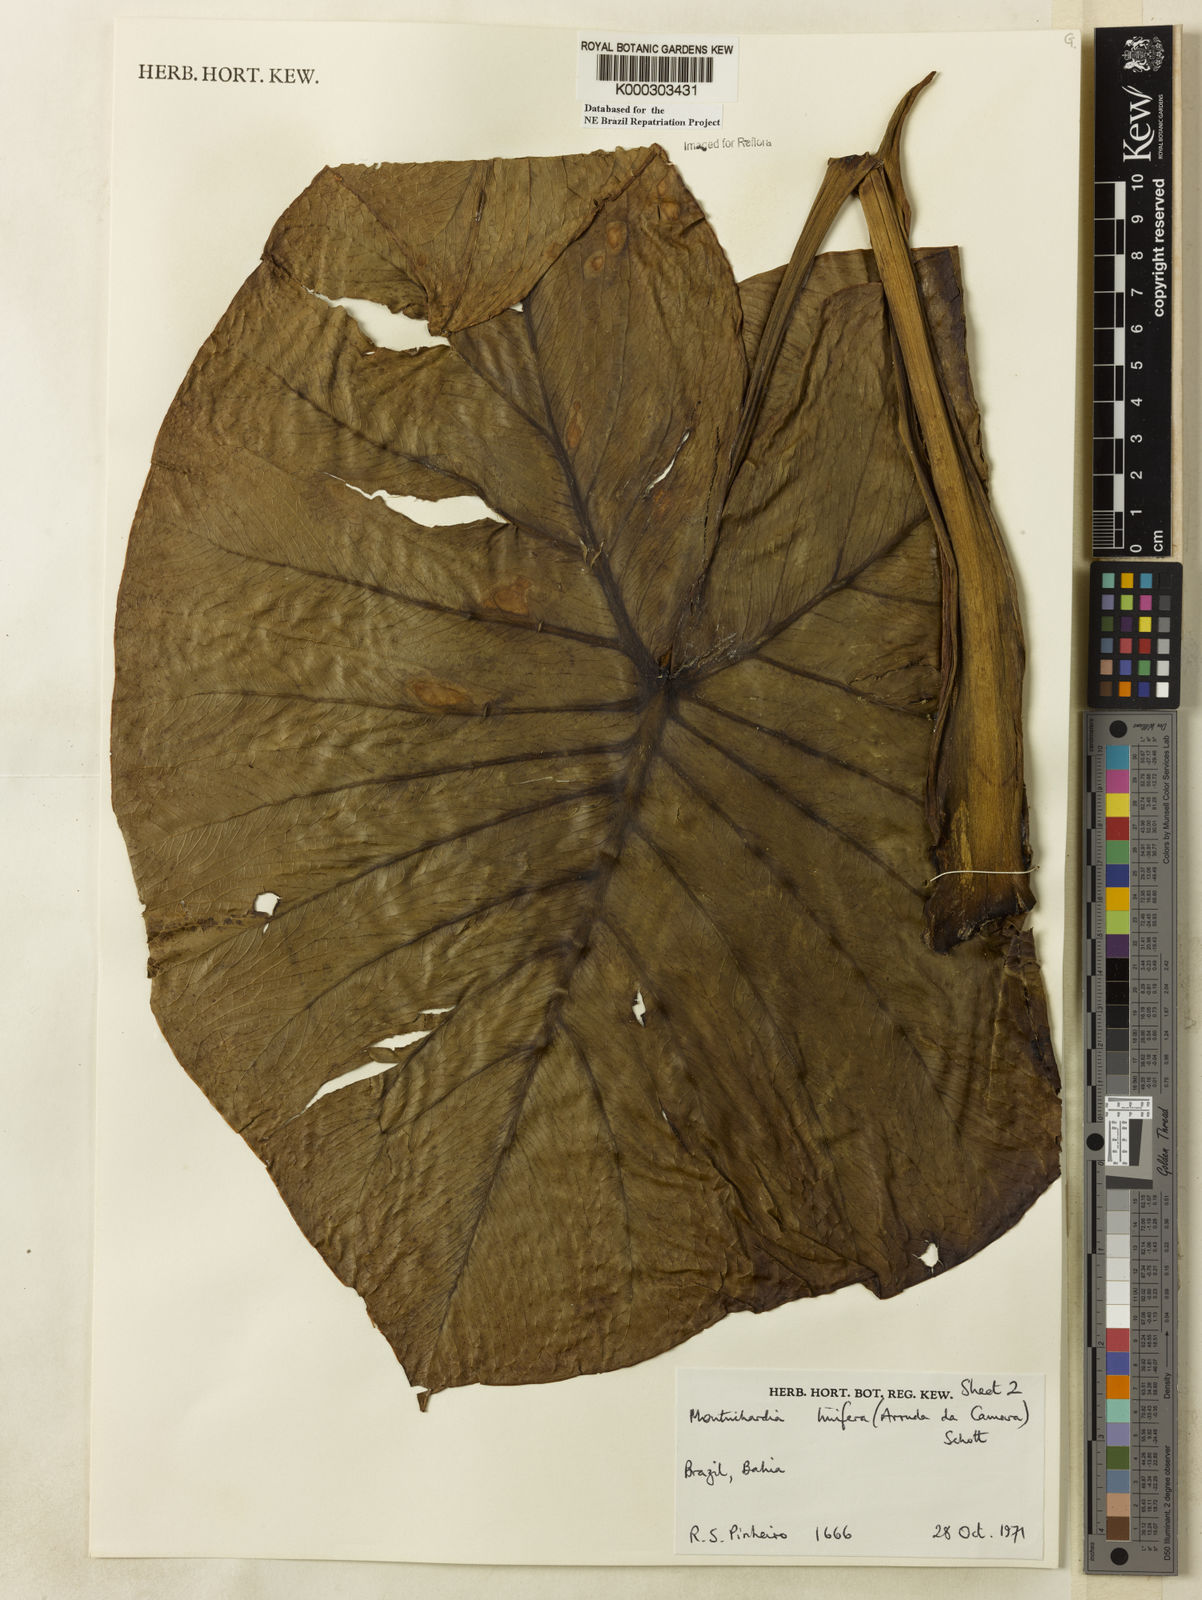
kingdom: Plantae
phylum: Tracheophyta
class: Liliopsida
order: Alismatales
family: Araceae
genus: Montrichardia
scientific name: Montrichardia linifera
